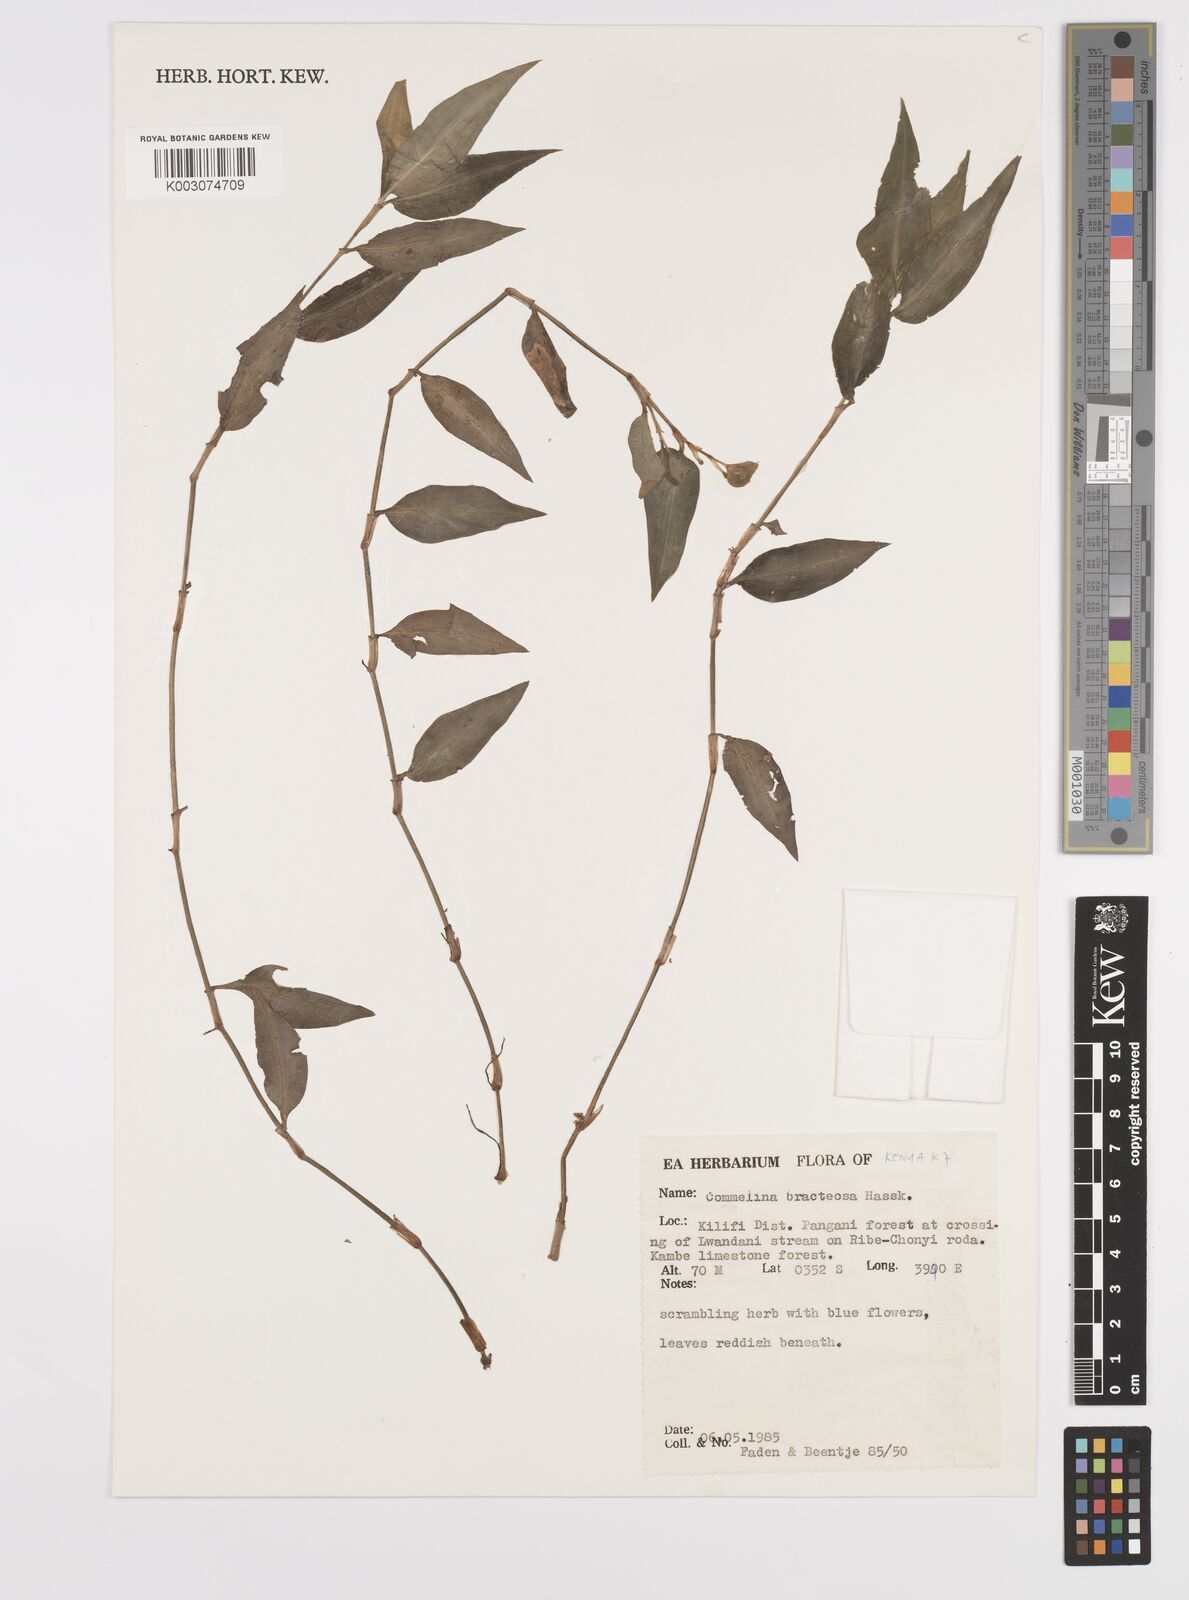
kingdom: Plantae
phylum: Tracheophyta
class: Liliopsida
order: Commelinales
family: Commelinaceae
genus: Commelina
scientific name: Commelina bracteosa
